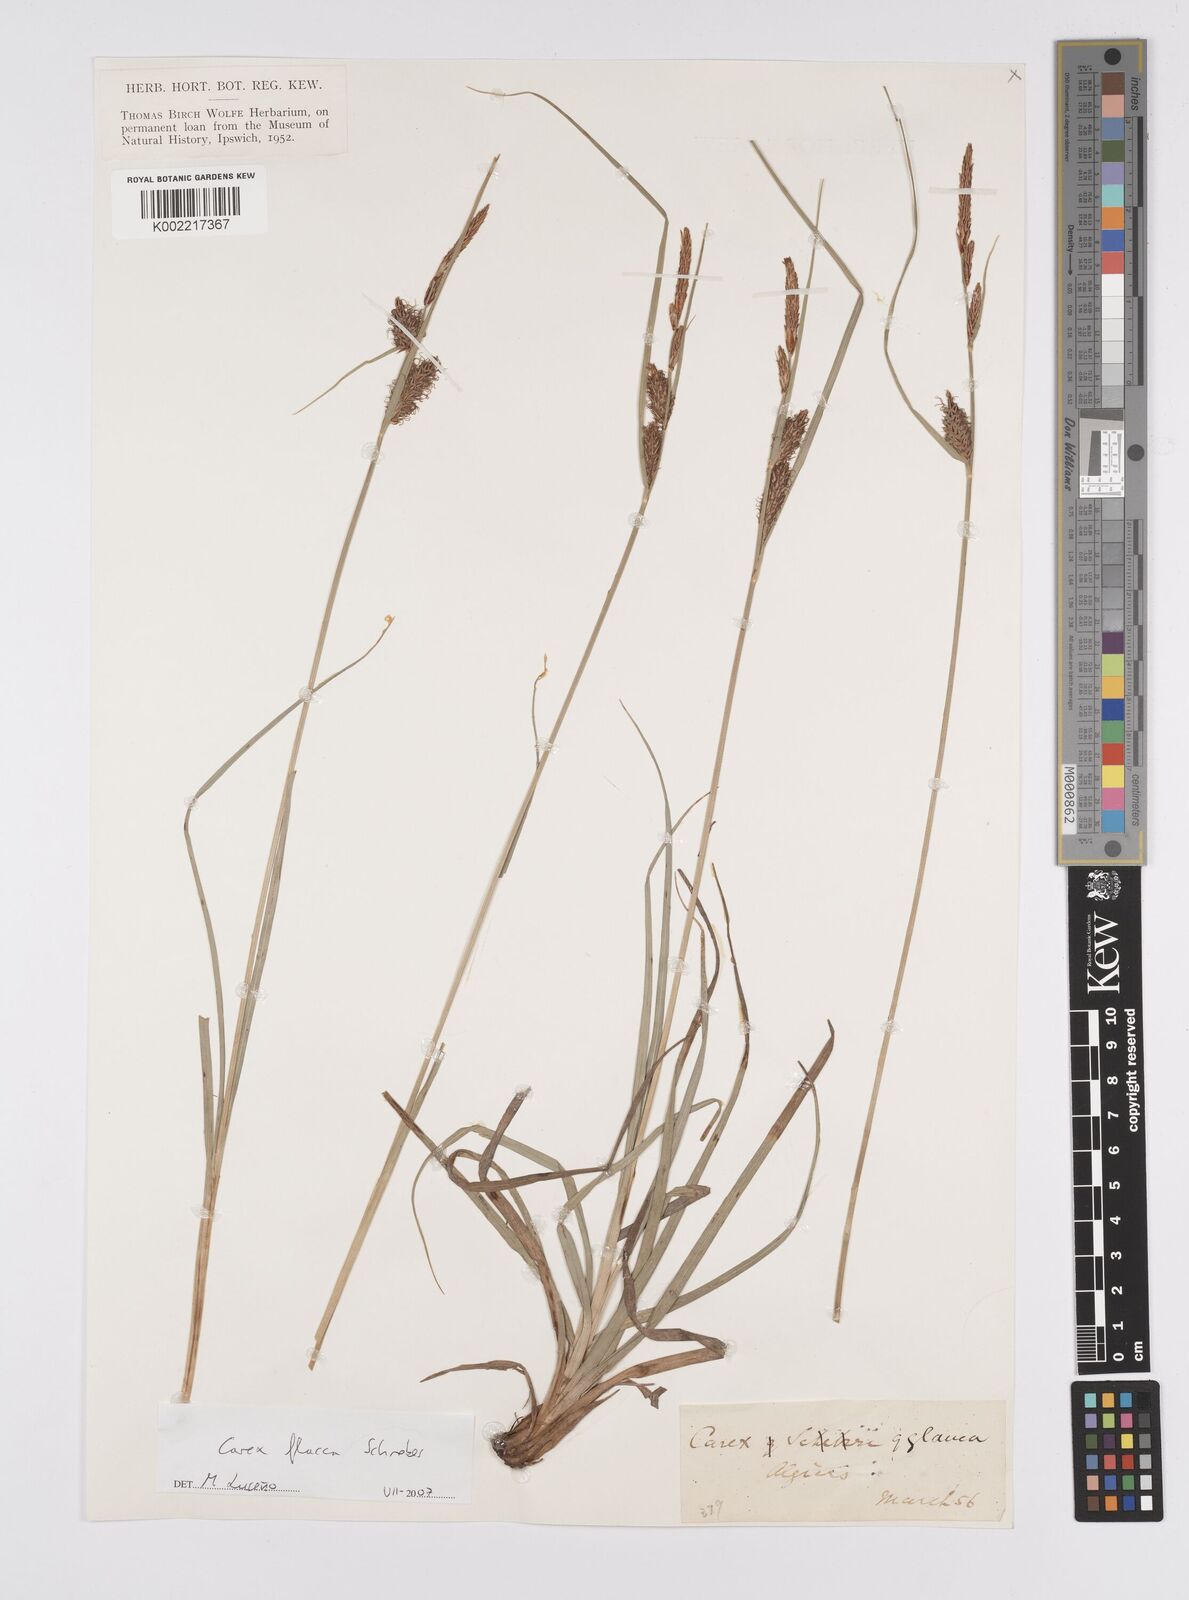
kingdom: Plantae
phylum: Tracheophyta
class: Liliopsida
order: Poales
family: Cyperaceae
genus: Carex
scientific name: Carex flacca
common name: Glaucous sedge
